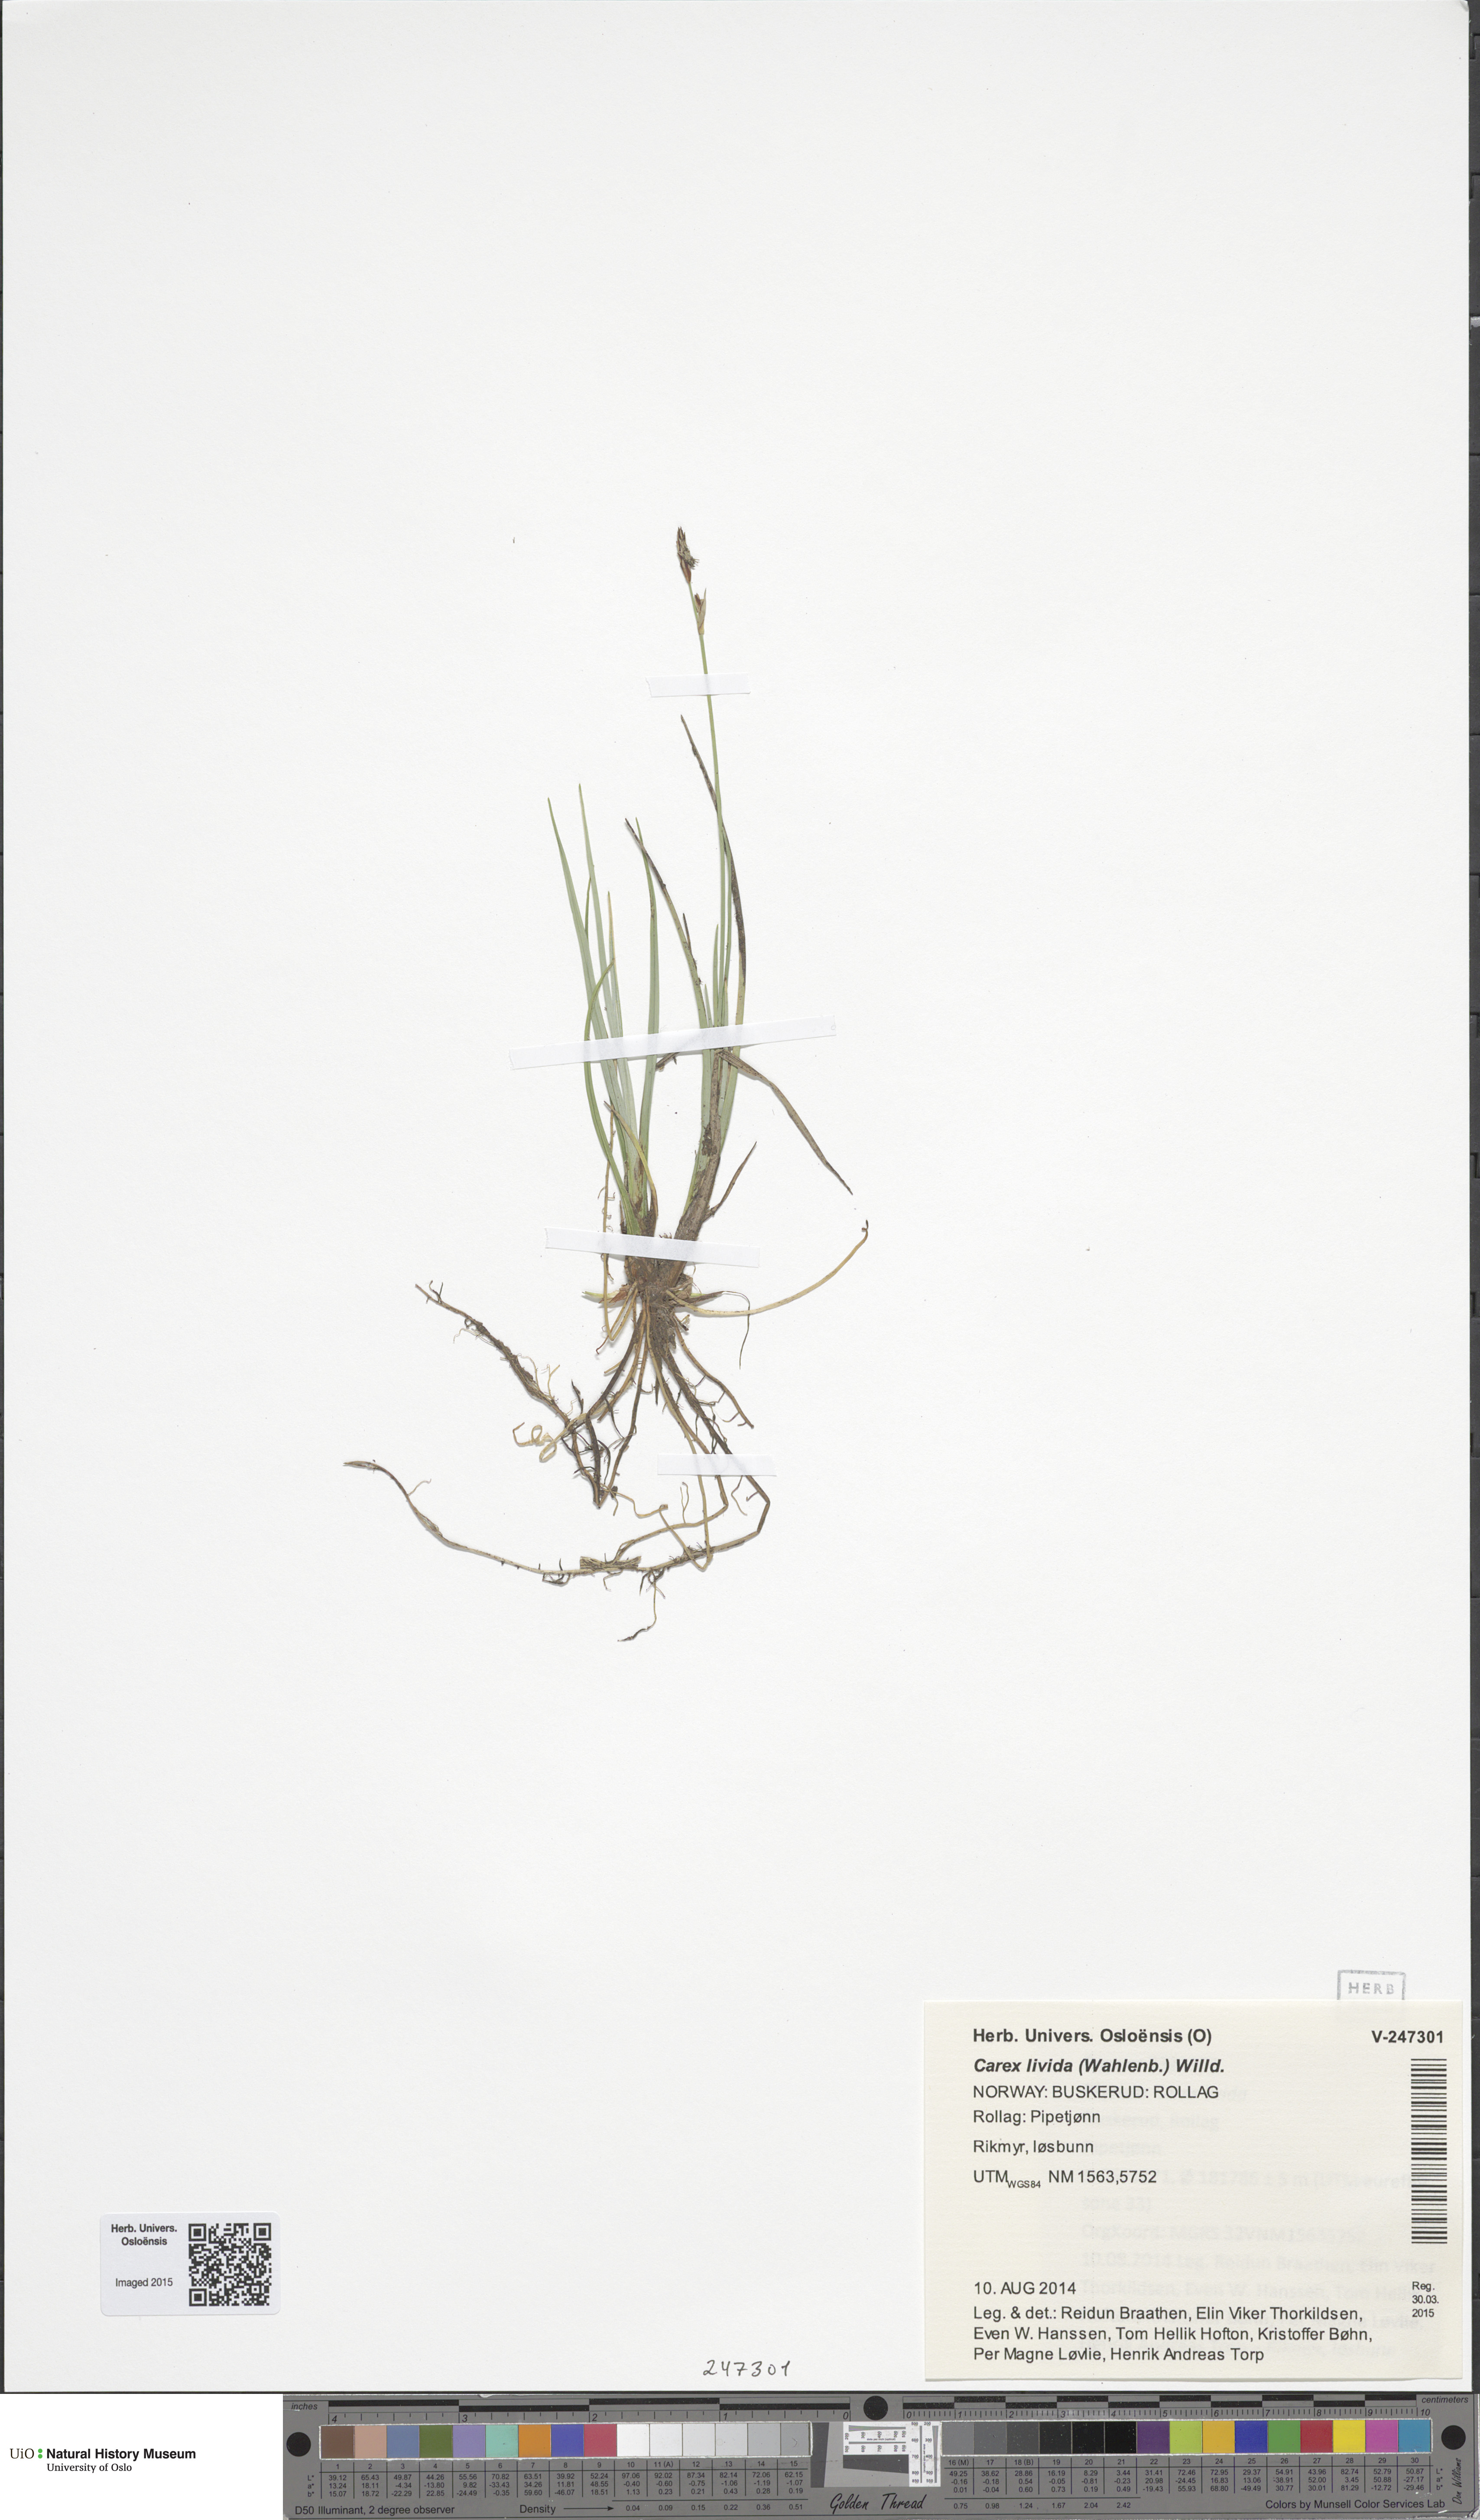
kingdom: Plantae
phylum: Tracheophyta
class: Liliopsida
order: Poales
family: Cyperaceae
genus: Carex
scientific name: Carex livida
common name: Livid sedge
